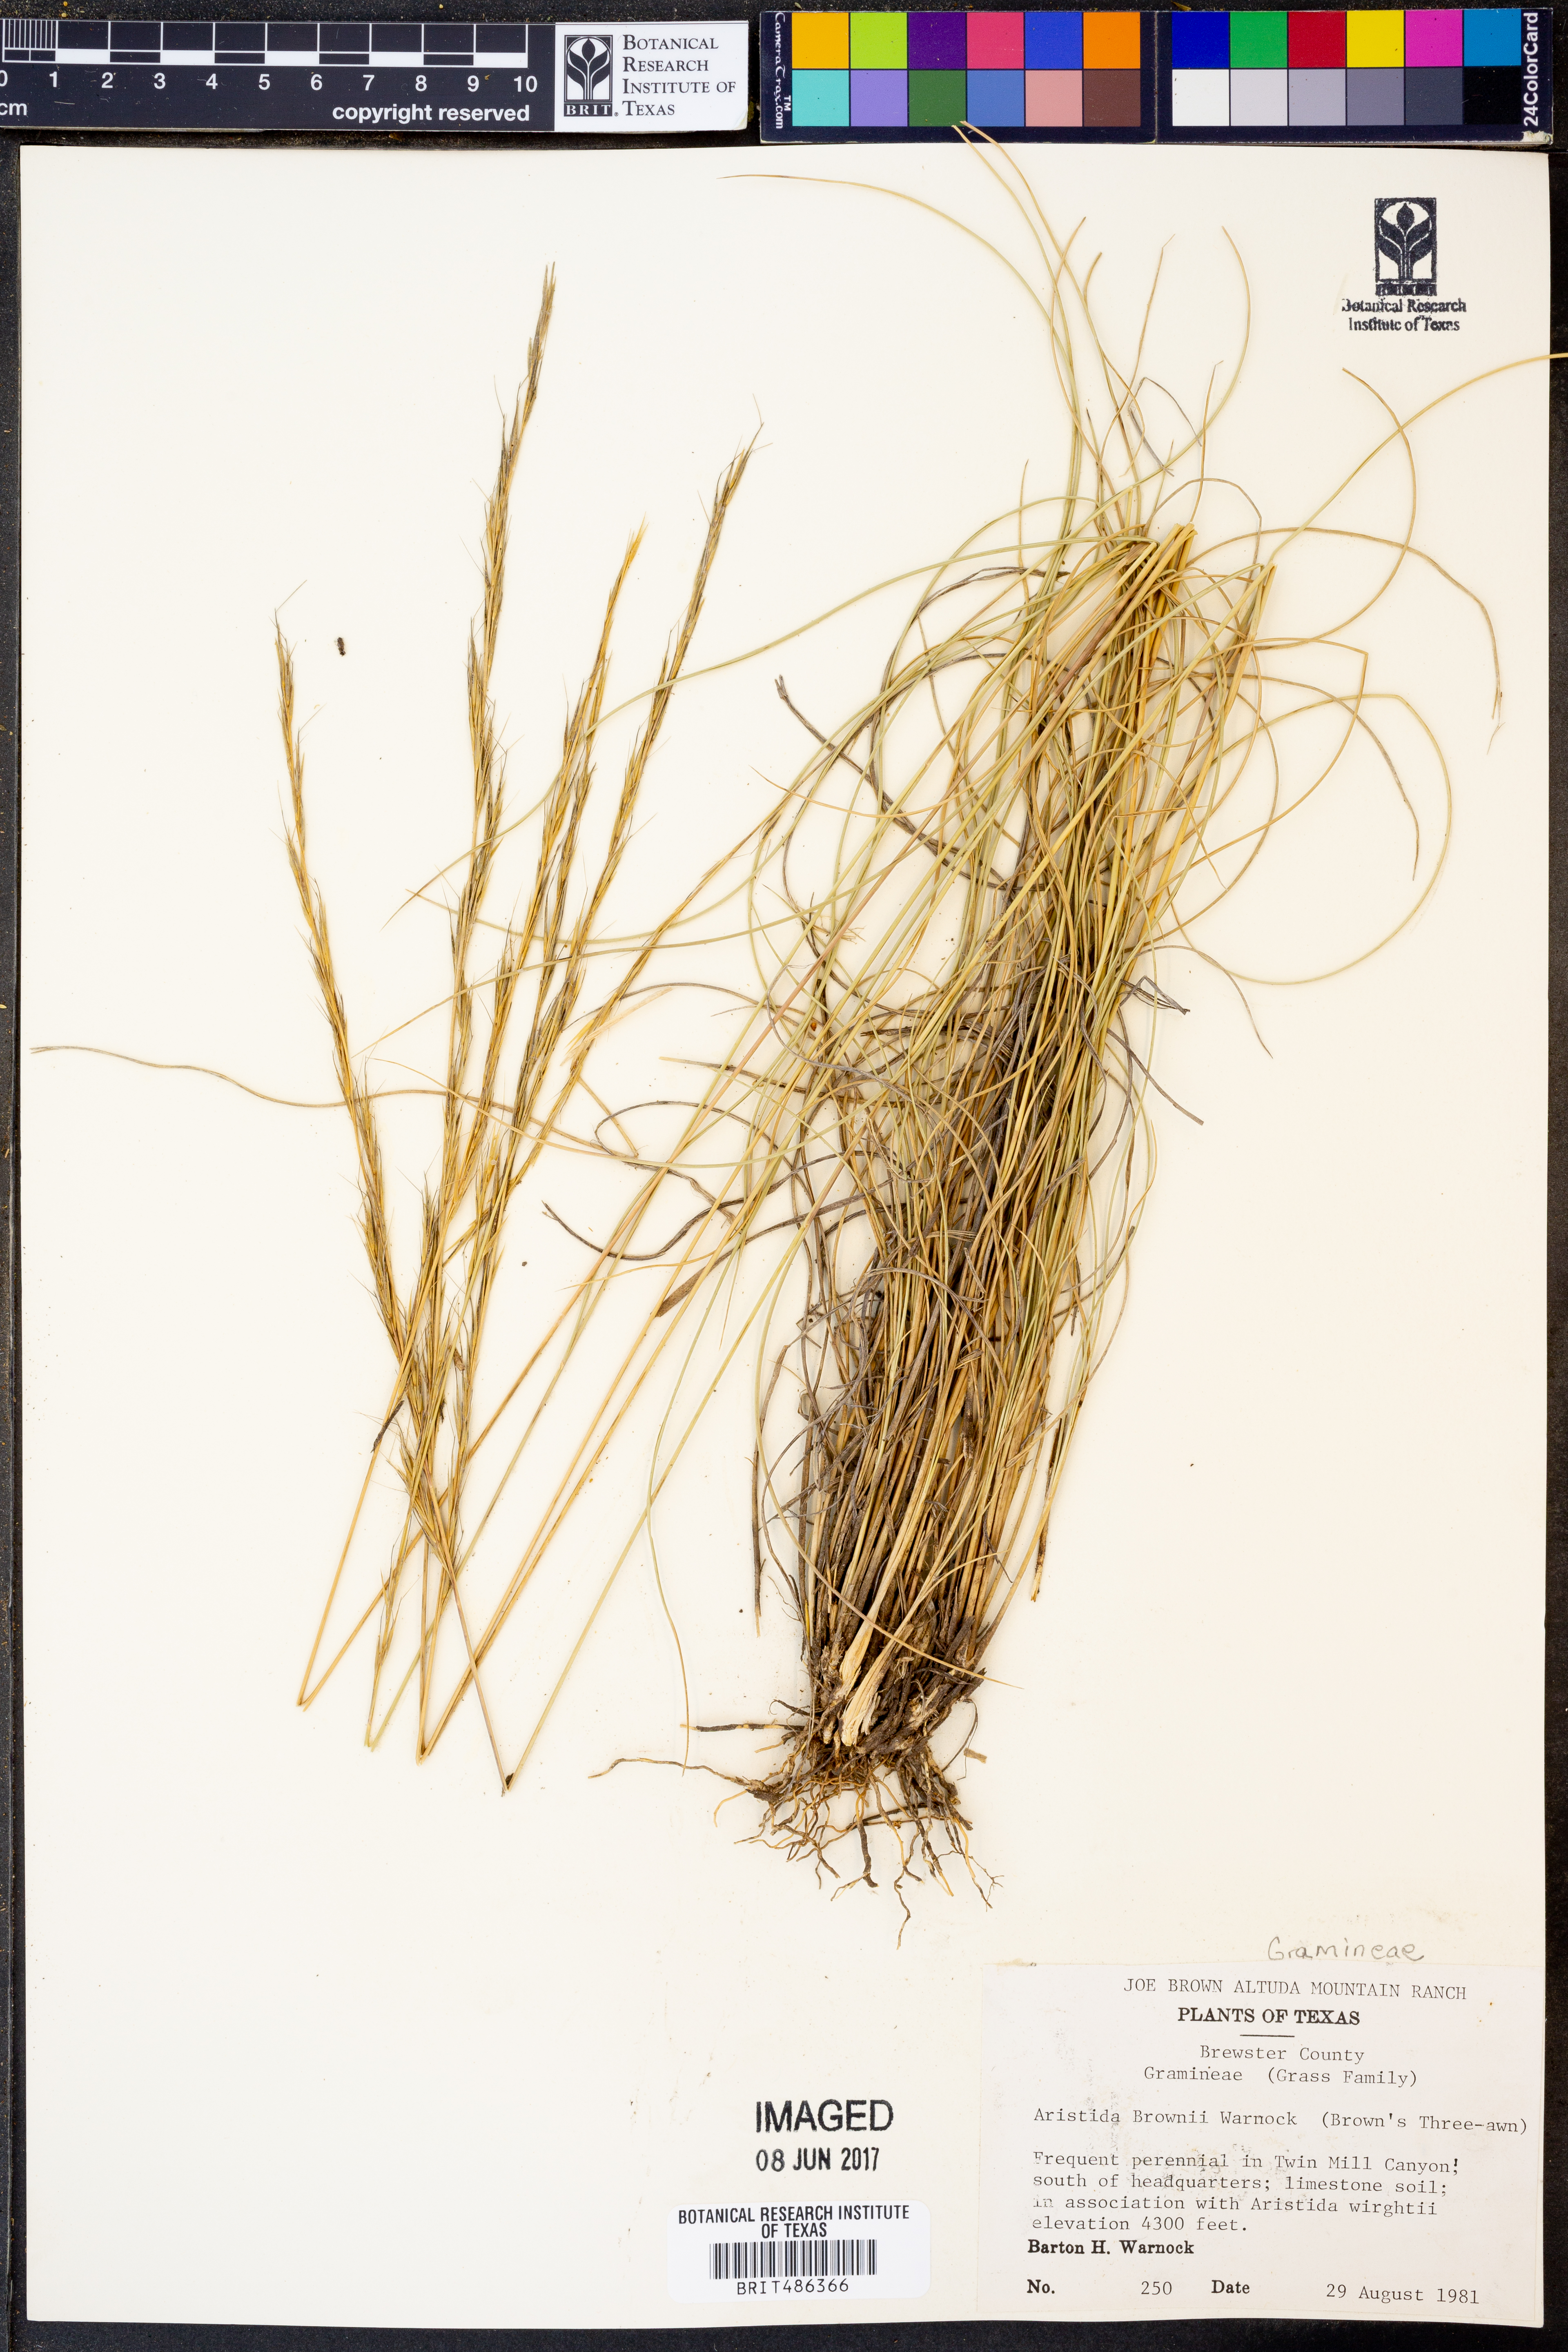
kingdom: Plantae
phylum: Tracheophyta
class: Liliopsida
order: Poales
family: Poaceae
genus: Aristida
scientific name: Aristida purpurea
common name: Purple threeawn
